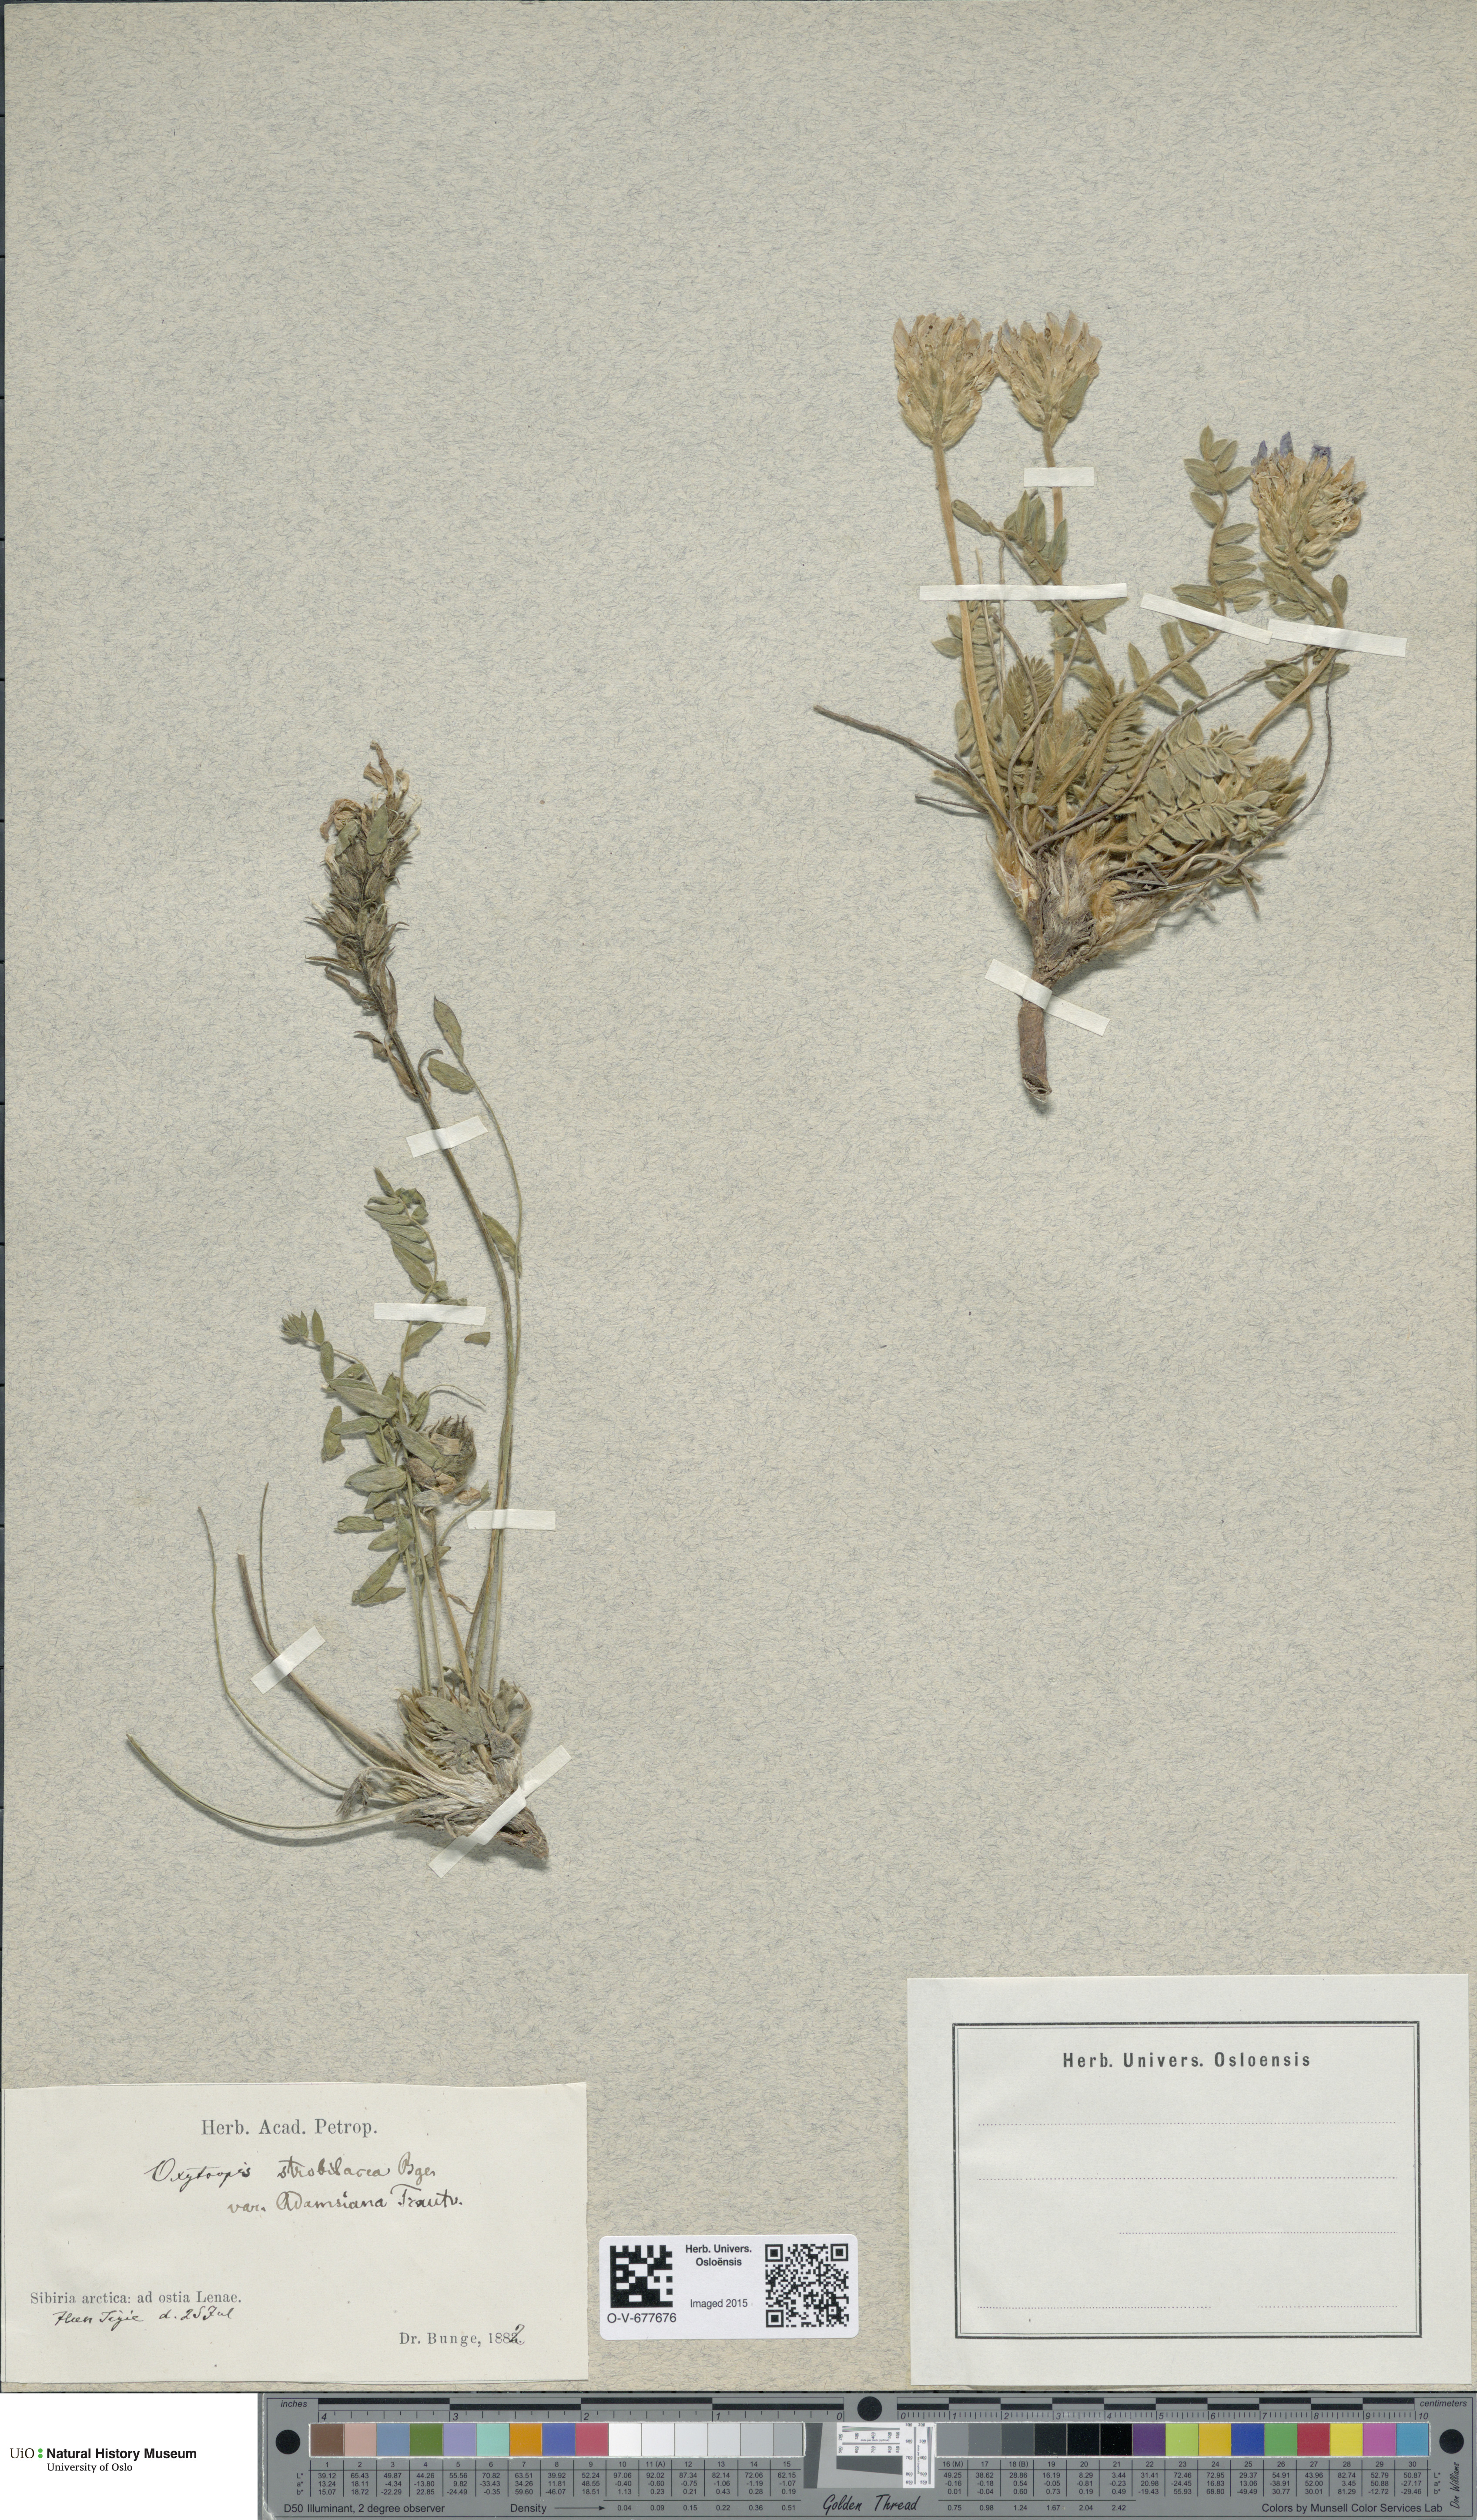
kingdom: Plantae
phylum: Tracheophyta
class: Magnoliopsida
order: Fabales
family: Fabaceae
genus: Oxytropis
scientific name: Oxytropis adamsiana
